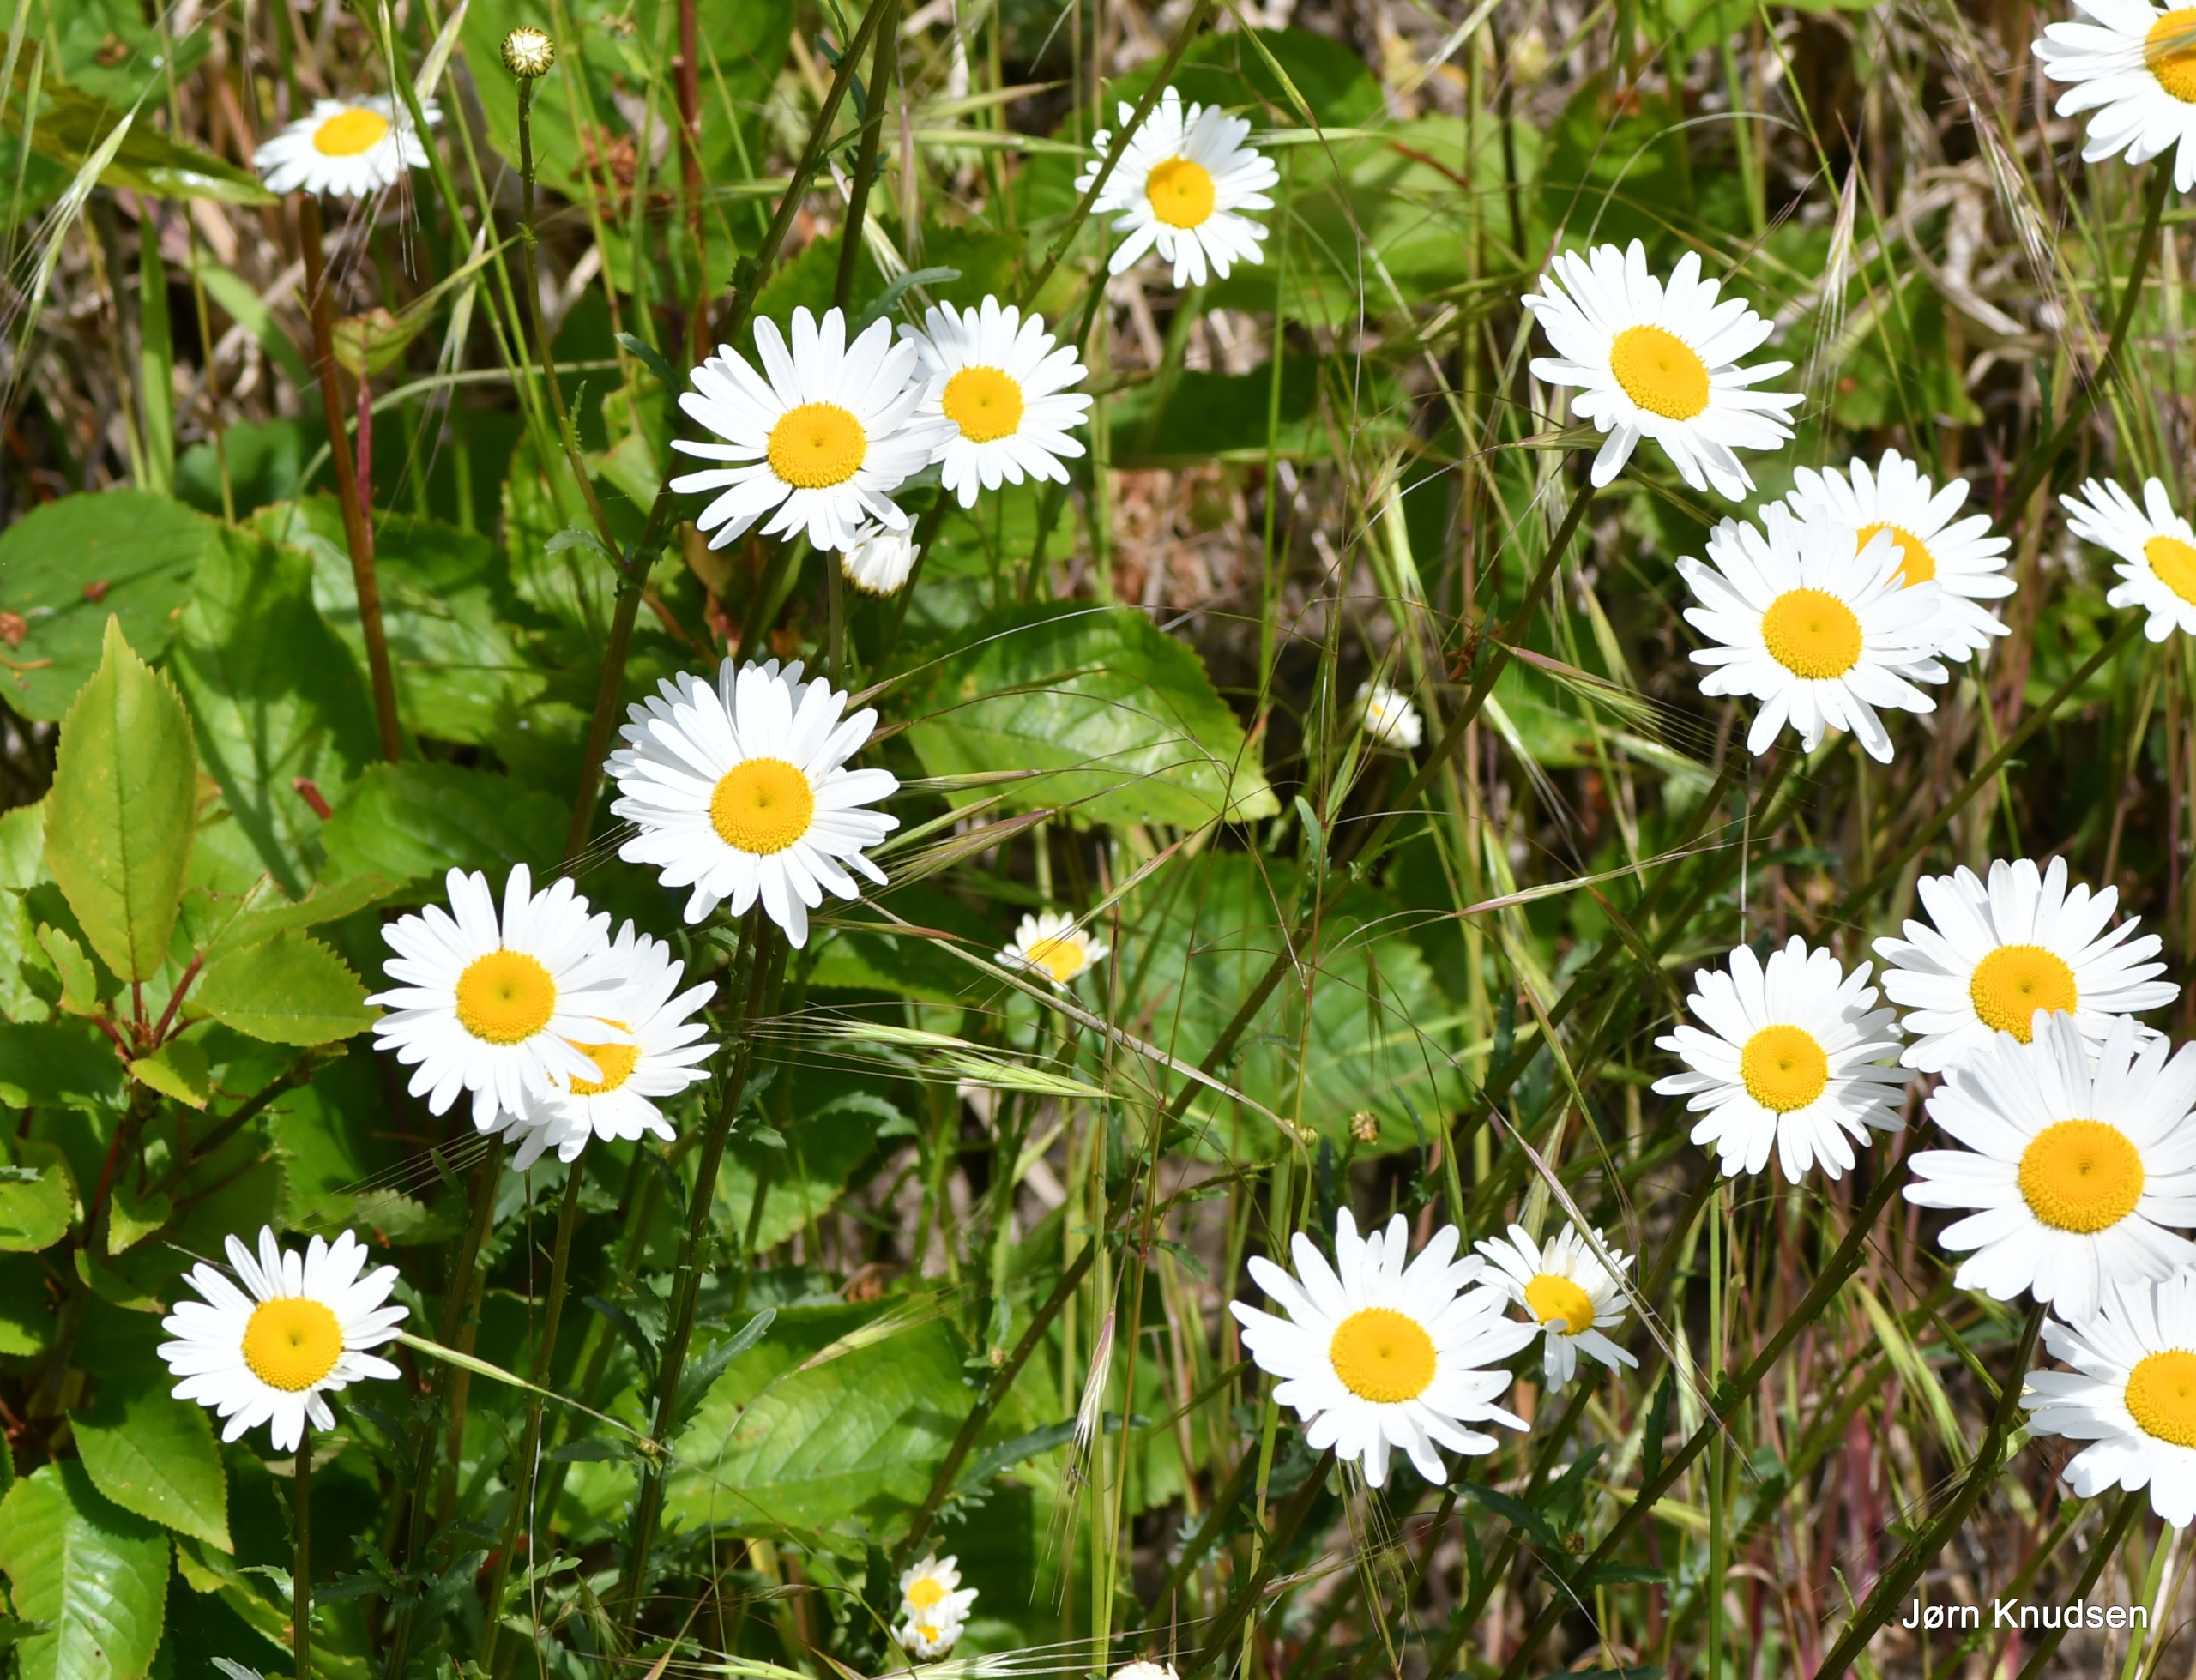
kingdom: Plantae
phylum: Tracheophyta
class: Magnoliopsida
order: Asterales
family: Asteraceae
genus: Leucanthemum
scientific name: Leucanthemum vulgare
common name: Hvid okseøje
